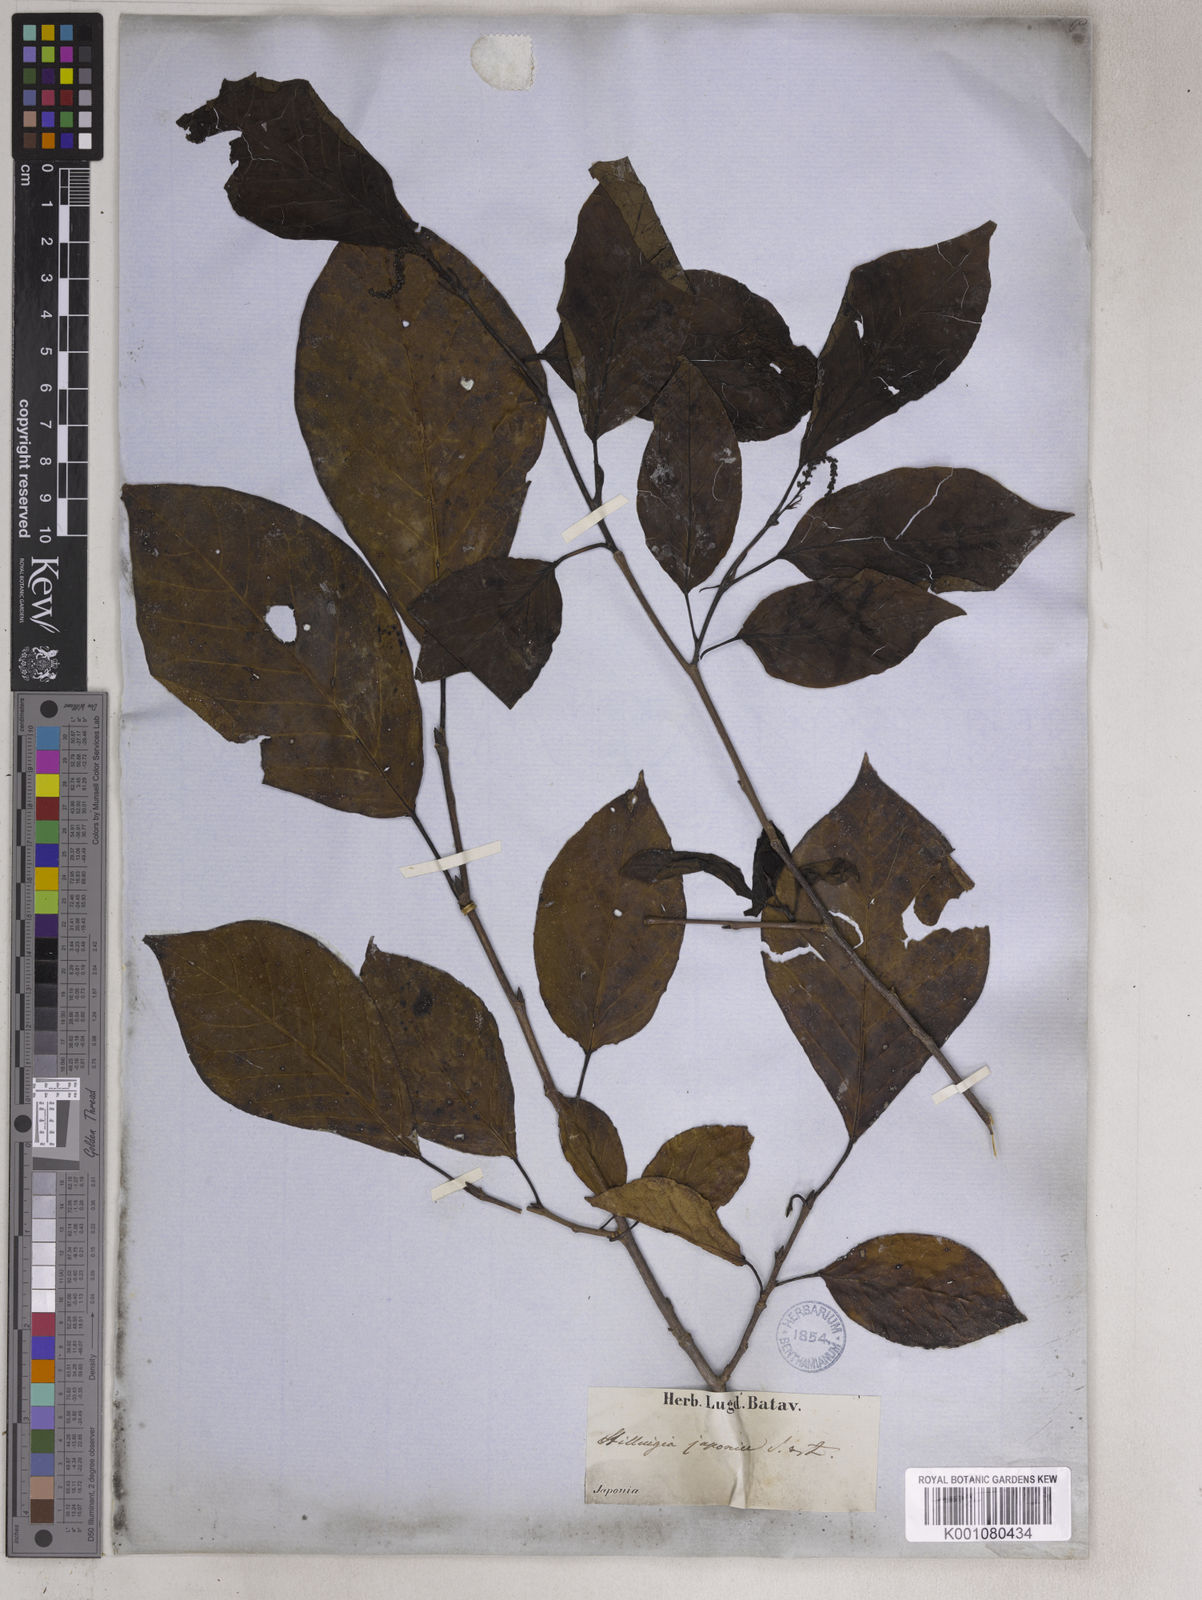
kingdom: Plantae
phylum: Tracheophyta
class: Magnoliopsida
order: Malpighiales
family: Euphorbiaceae
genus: Neoshirakia
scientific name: Neoshirakia japonica
